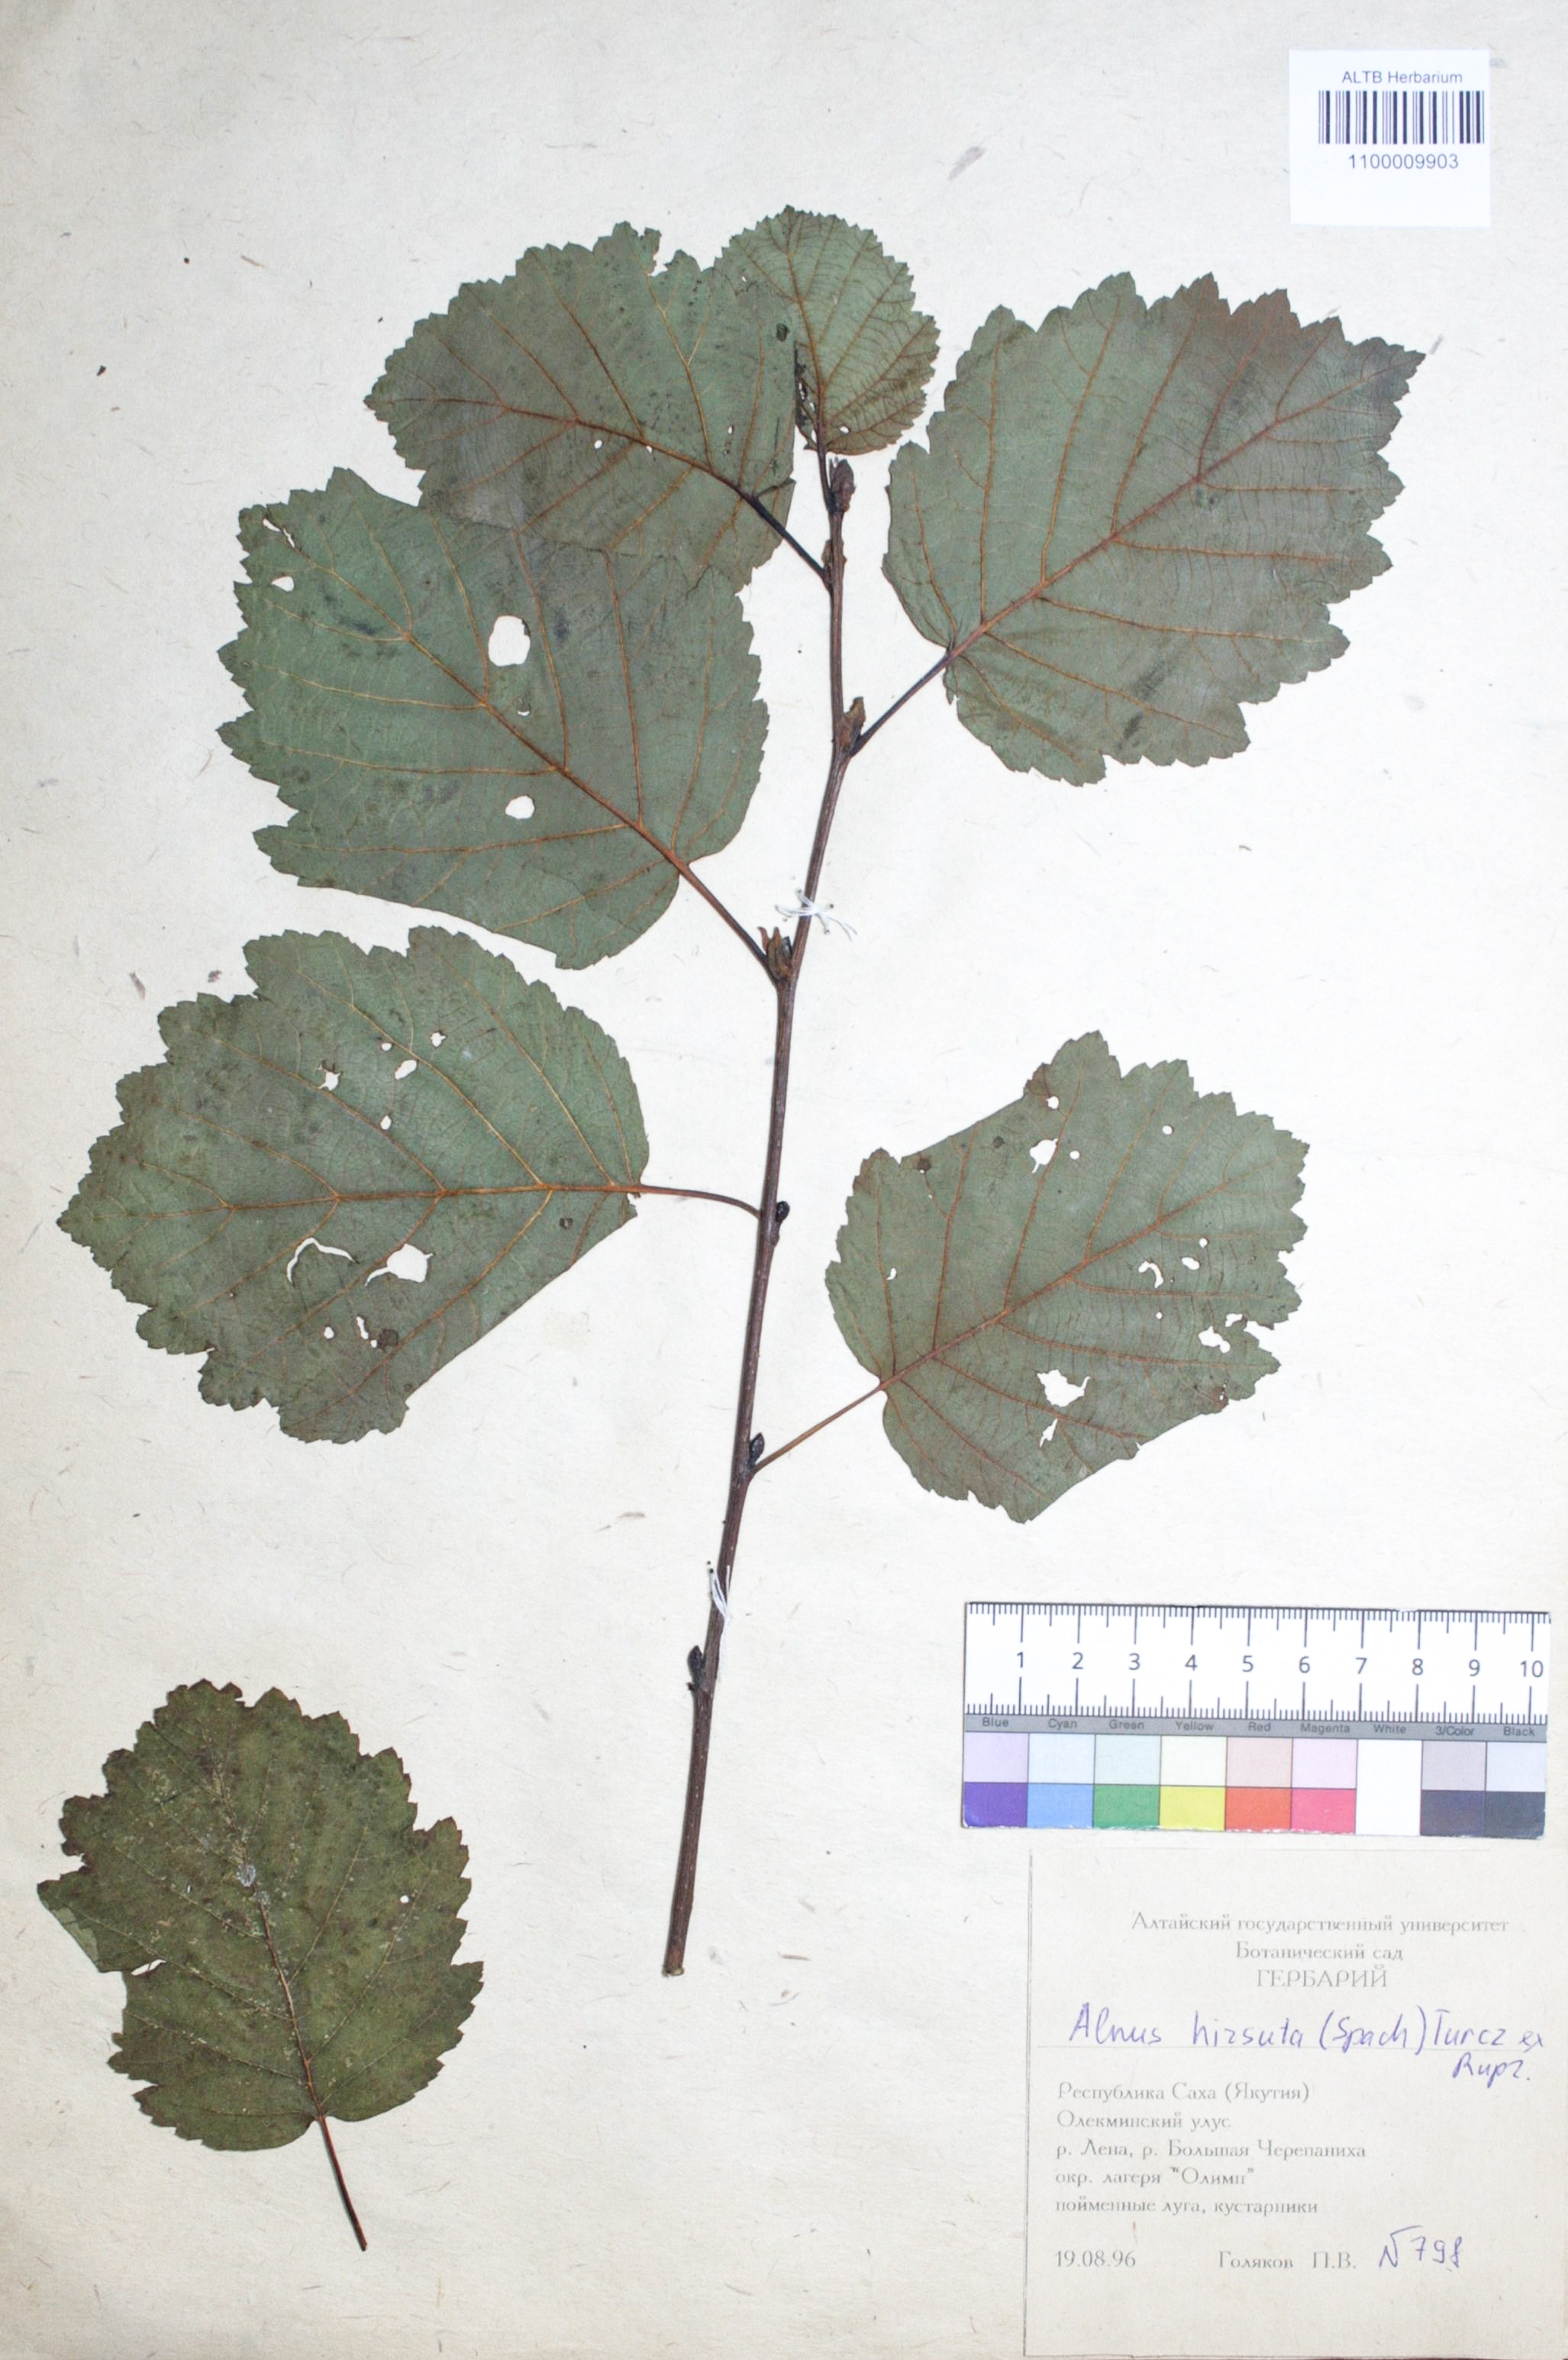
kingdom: Plantae
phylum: Tracheophyta
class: Magnoliopsida
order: Fagales
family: Betulaceae
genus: Alnus
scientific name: Alnus hirsuta
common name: Manchurian alder
